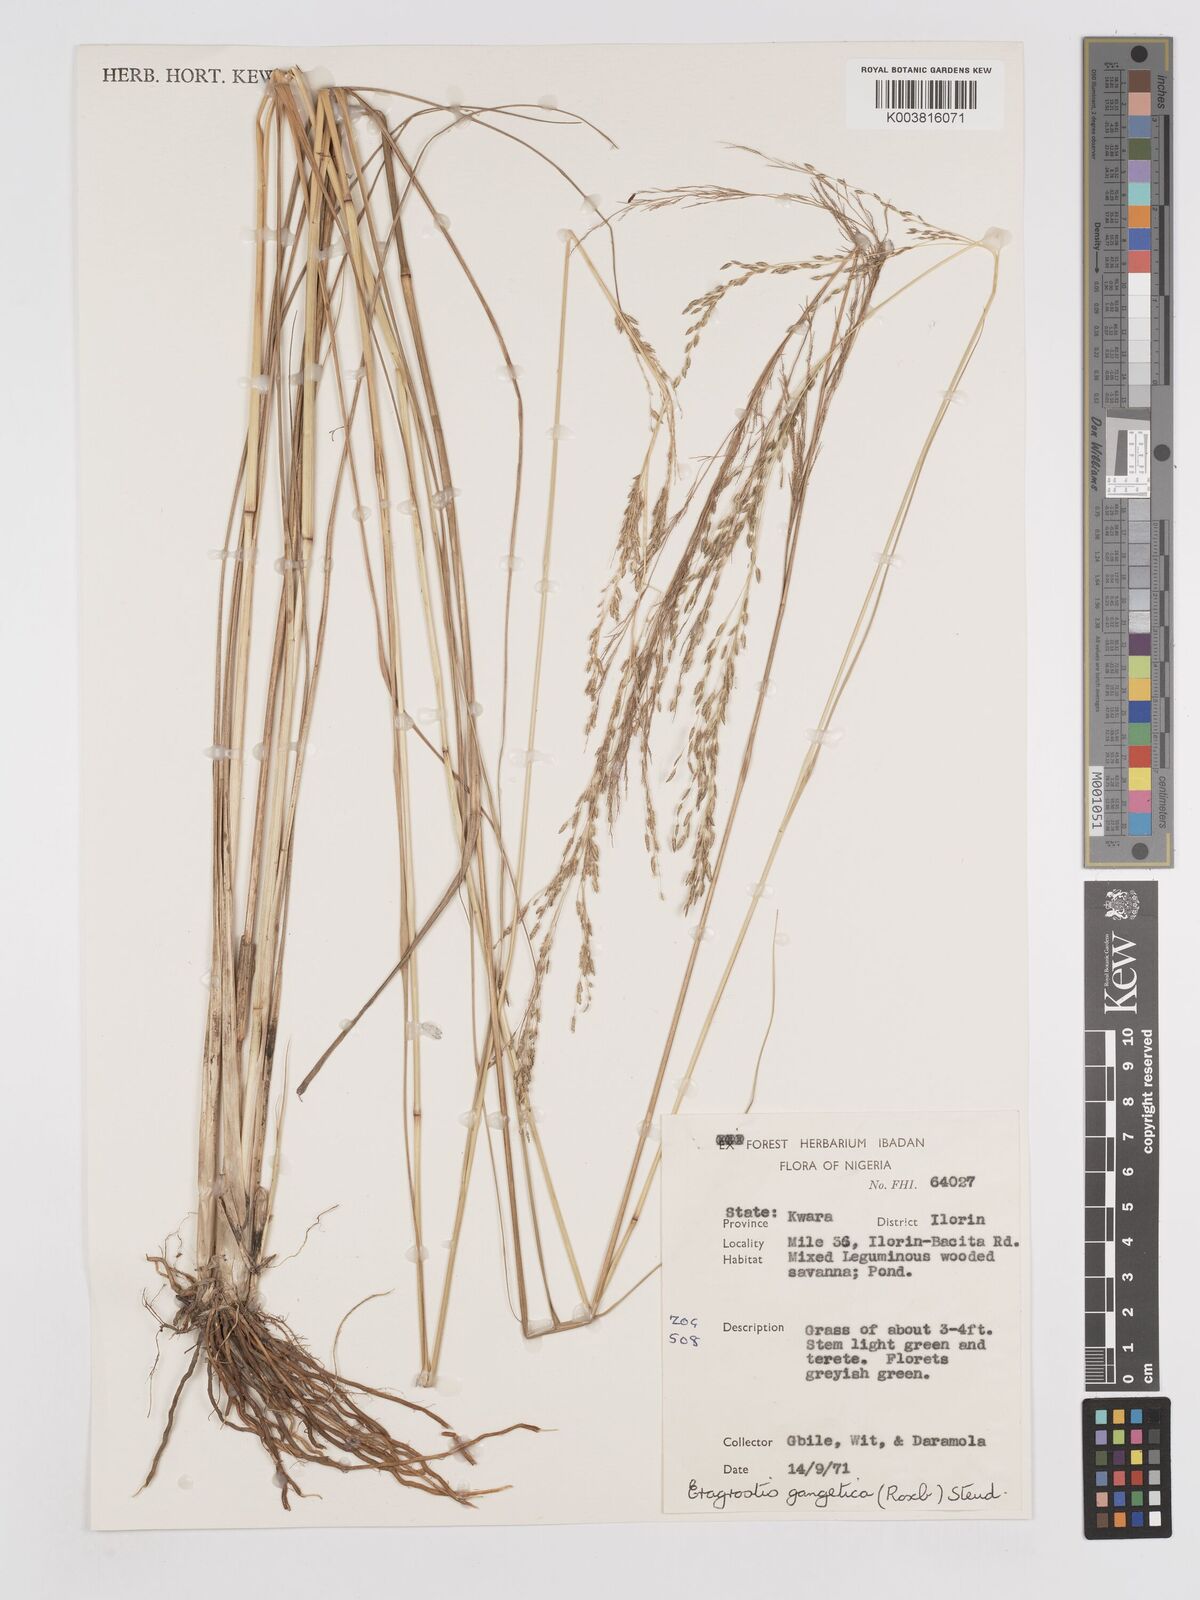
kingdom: Plantae
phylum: Tracheophyta
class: Liliopsida
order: Poales
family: Poaceae
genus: Eragrostis
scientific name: Eragrostis atrovirens
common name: Thalia lovegrass
